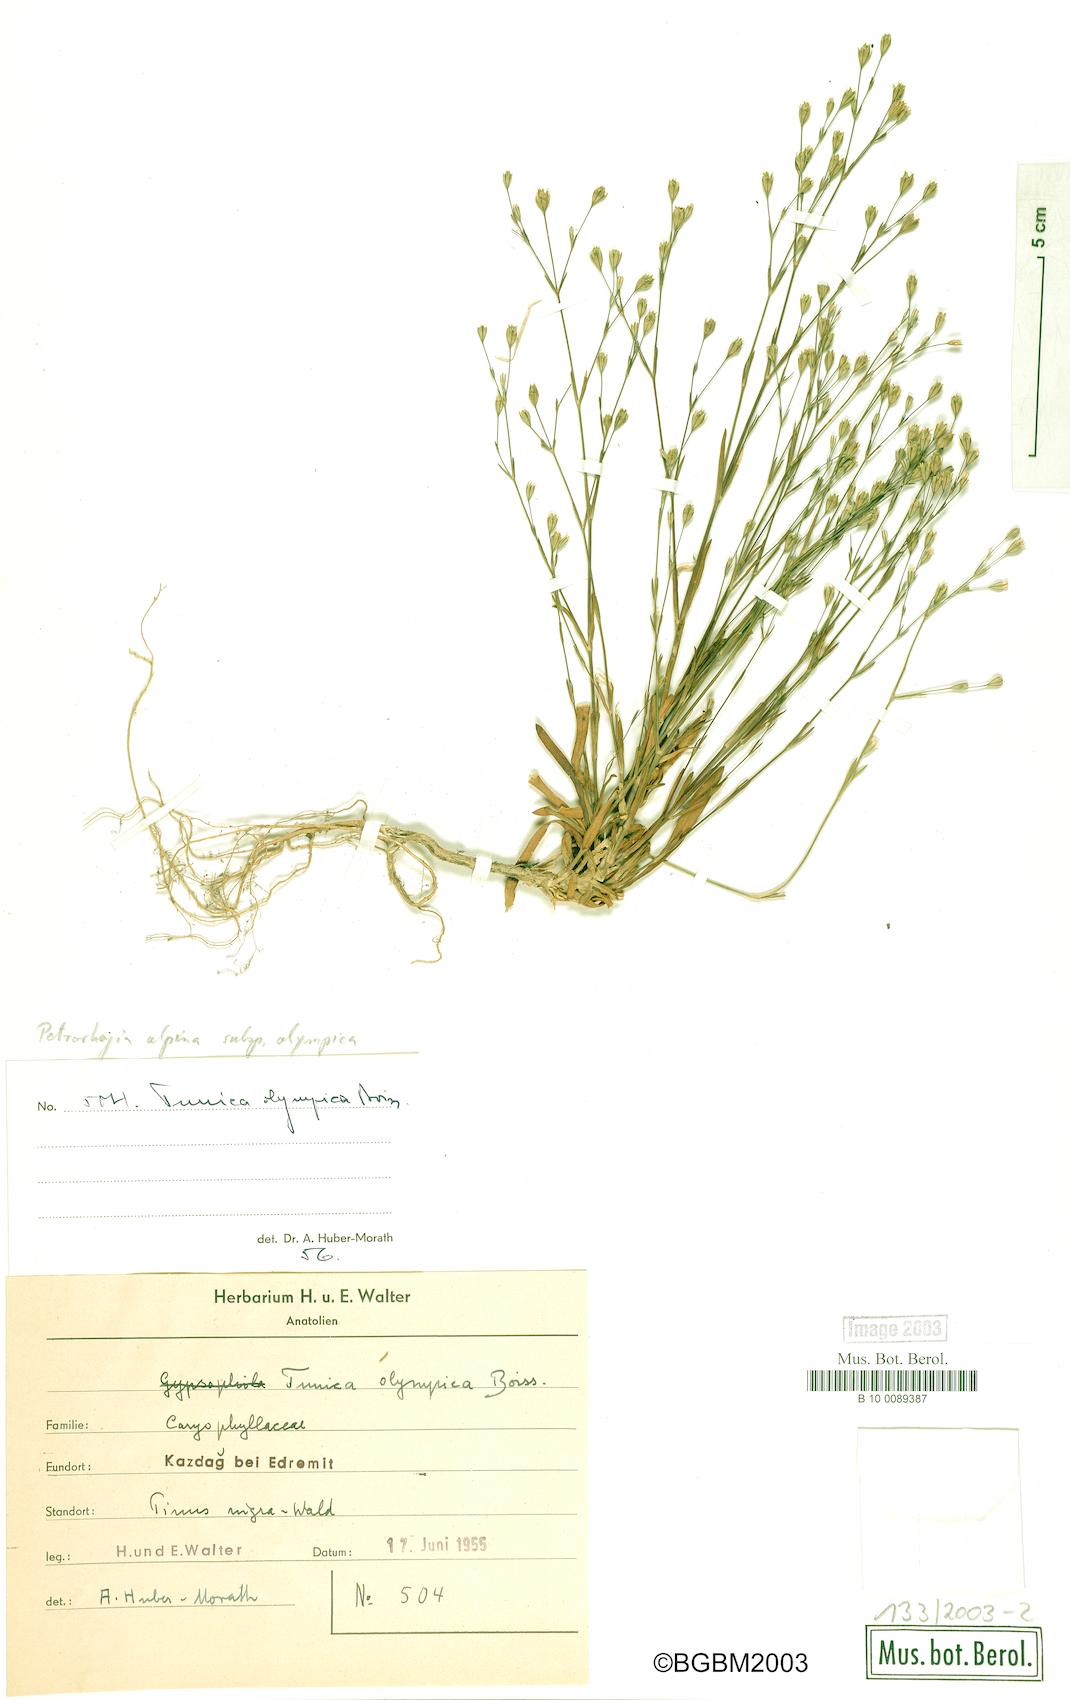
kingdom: Plantae
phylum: Tracheophyta
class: Magnoliopsida
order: Caryophyllales
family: Caryophyllaceae
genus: Petrorhagia
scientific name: Petrorhagia alpina
